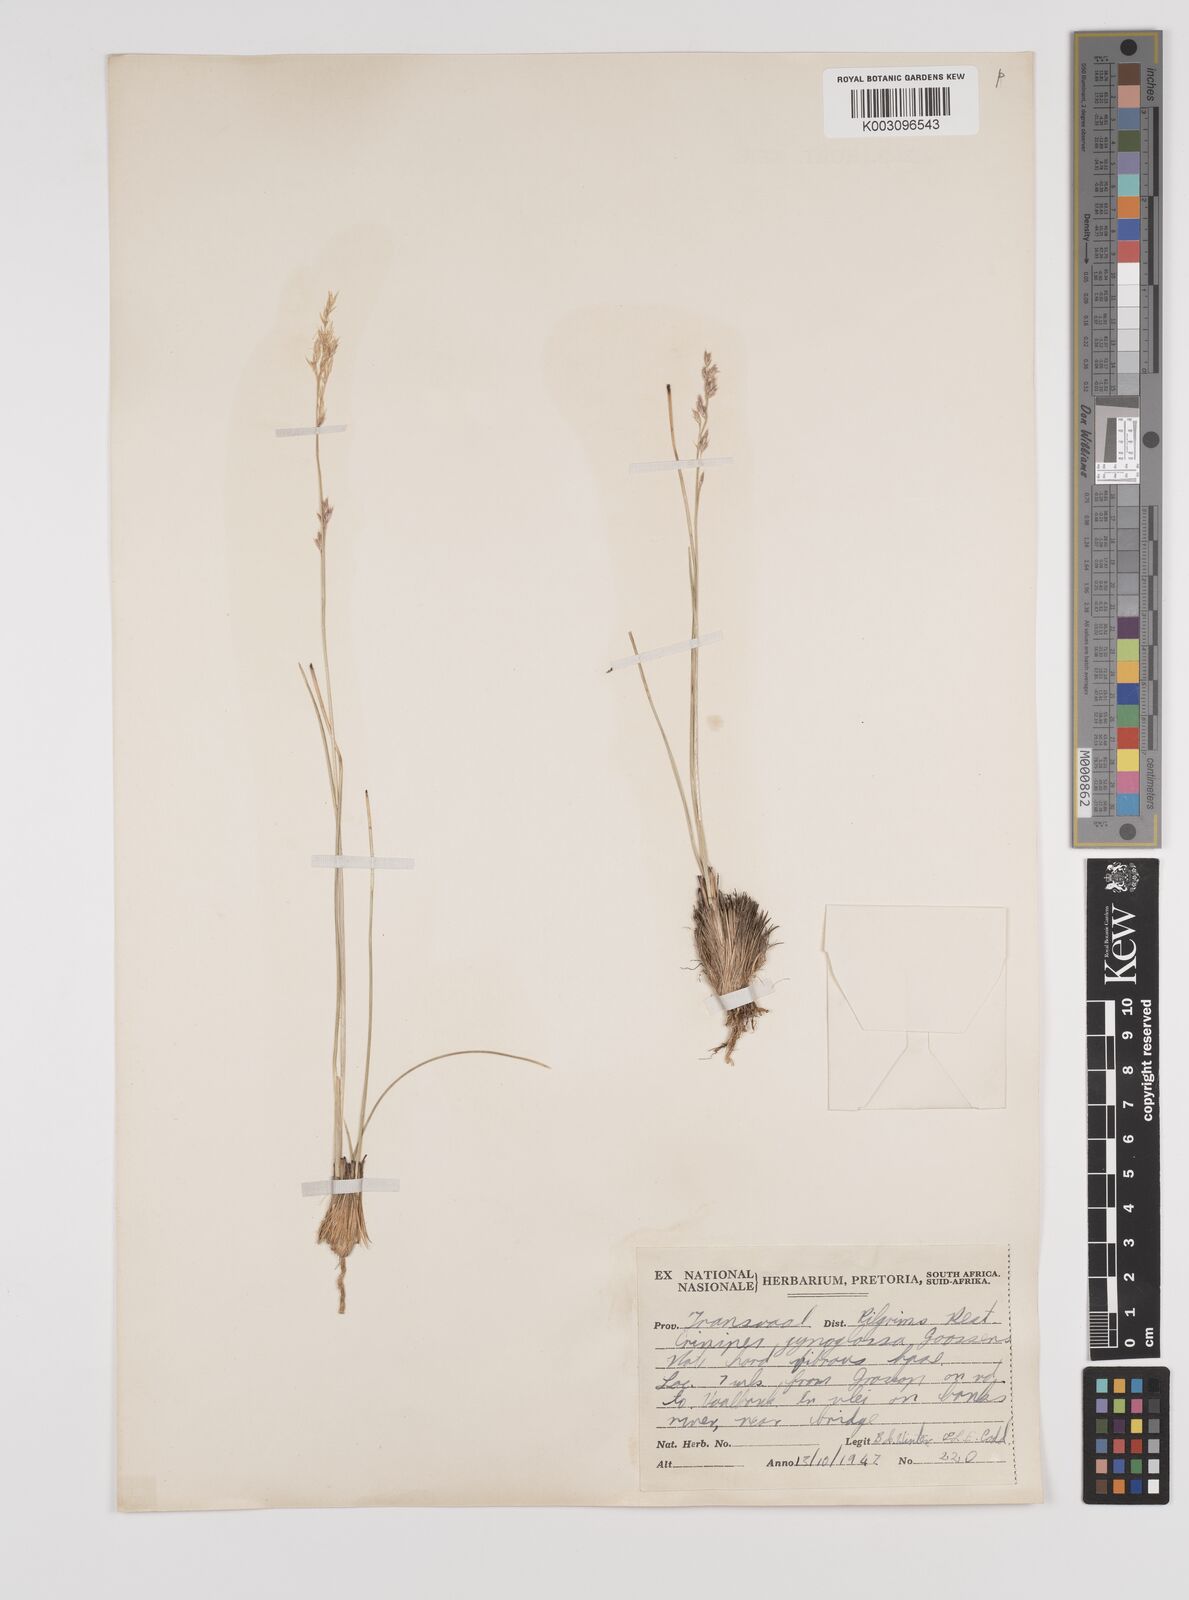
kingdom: Plantae
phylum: Tracheophyta
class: Liliopsida
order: Poales
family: Poaceae
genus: Styppeiochloa
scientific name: Styppeiochloa gynoglossa
